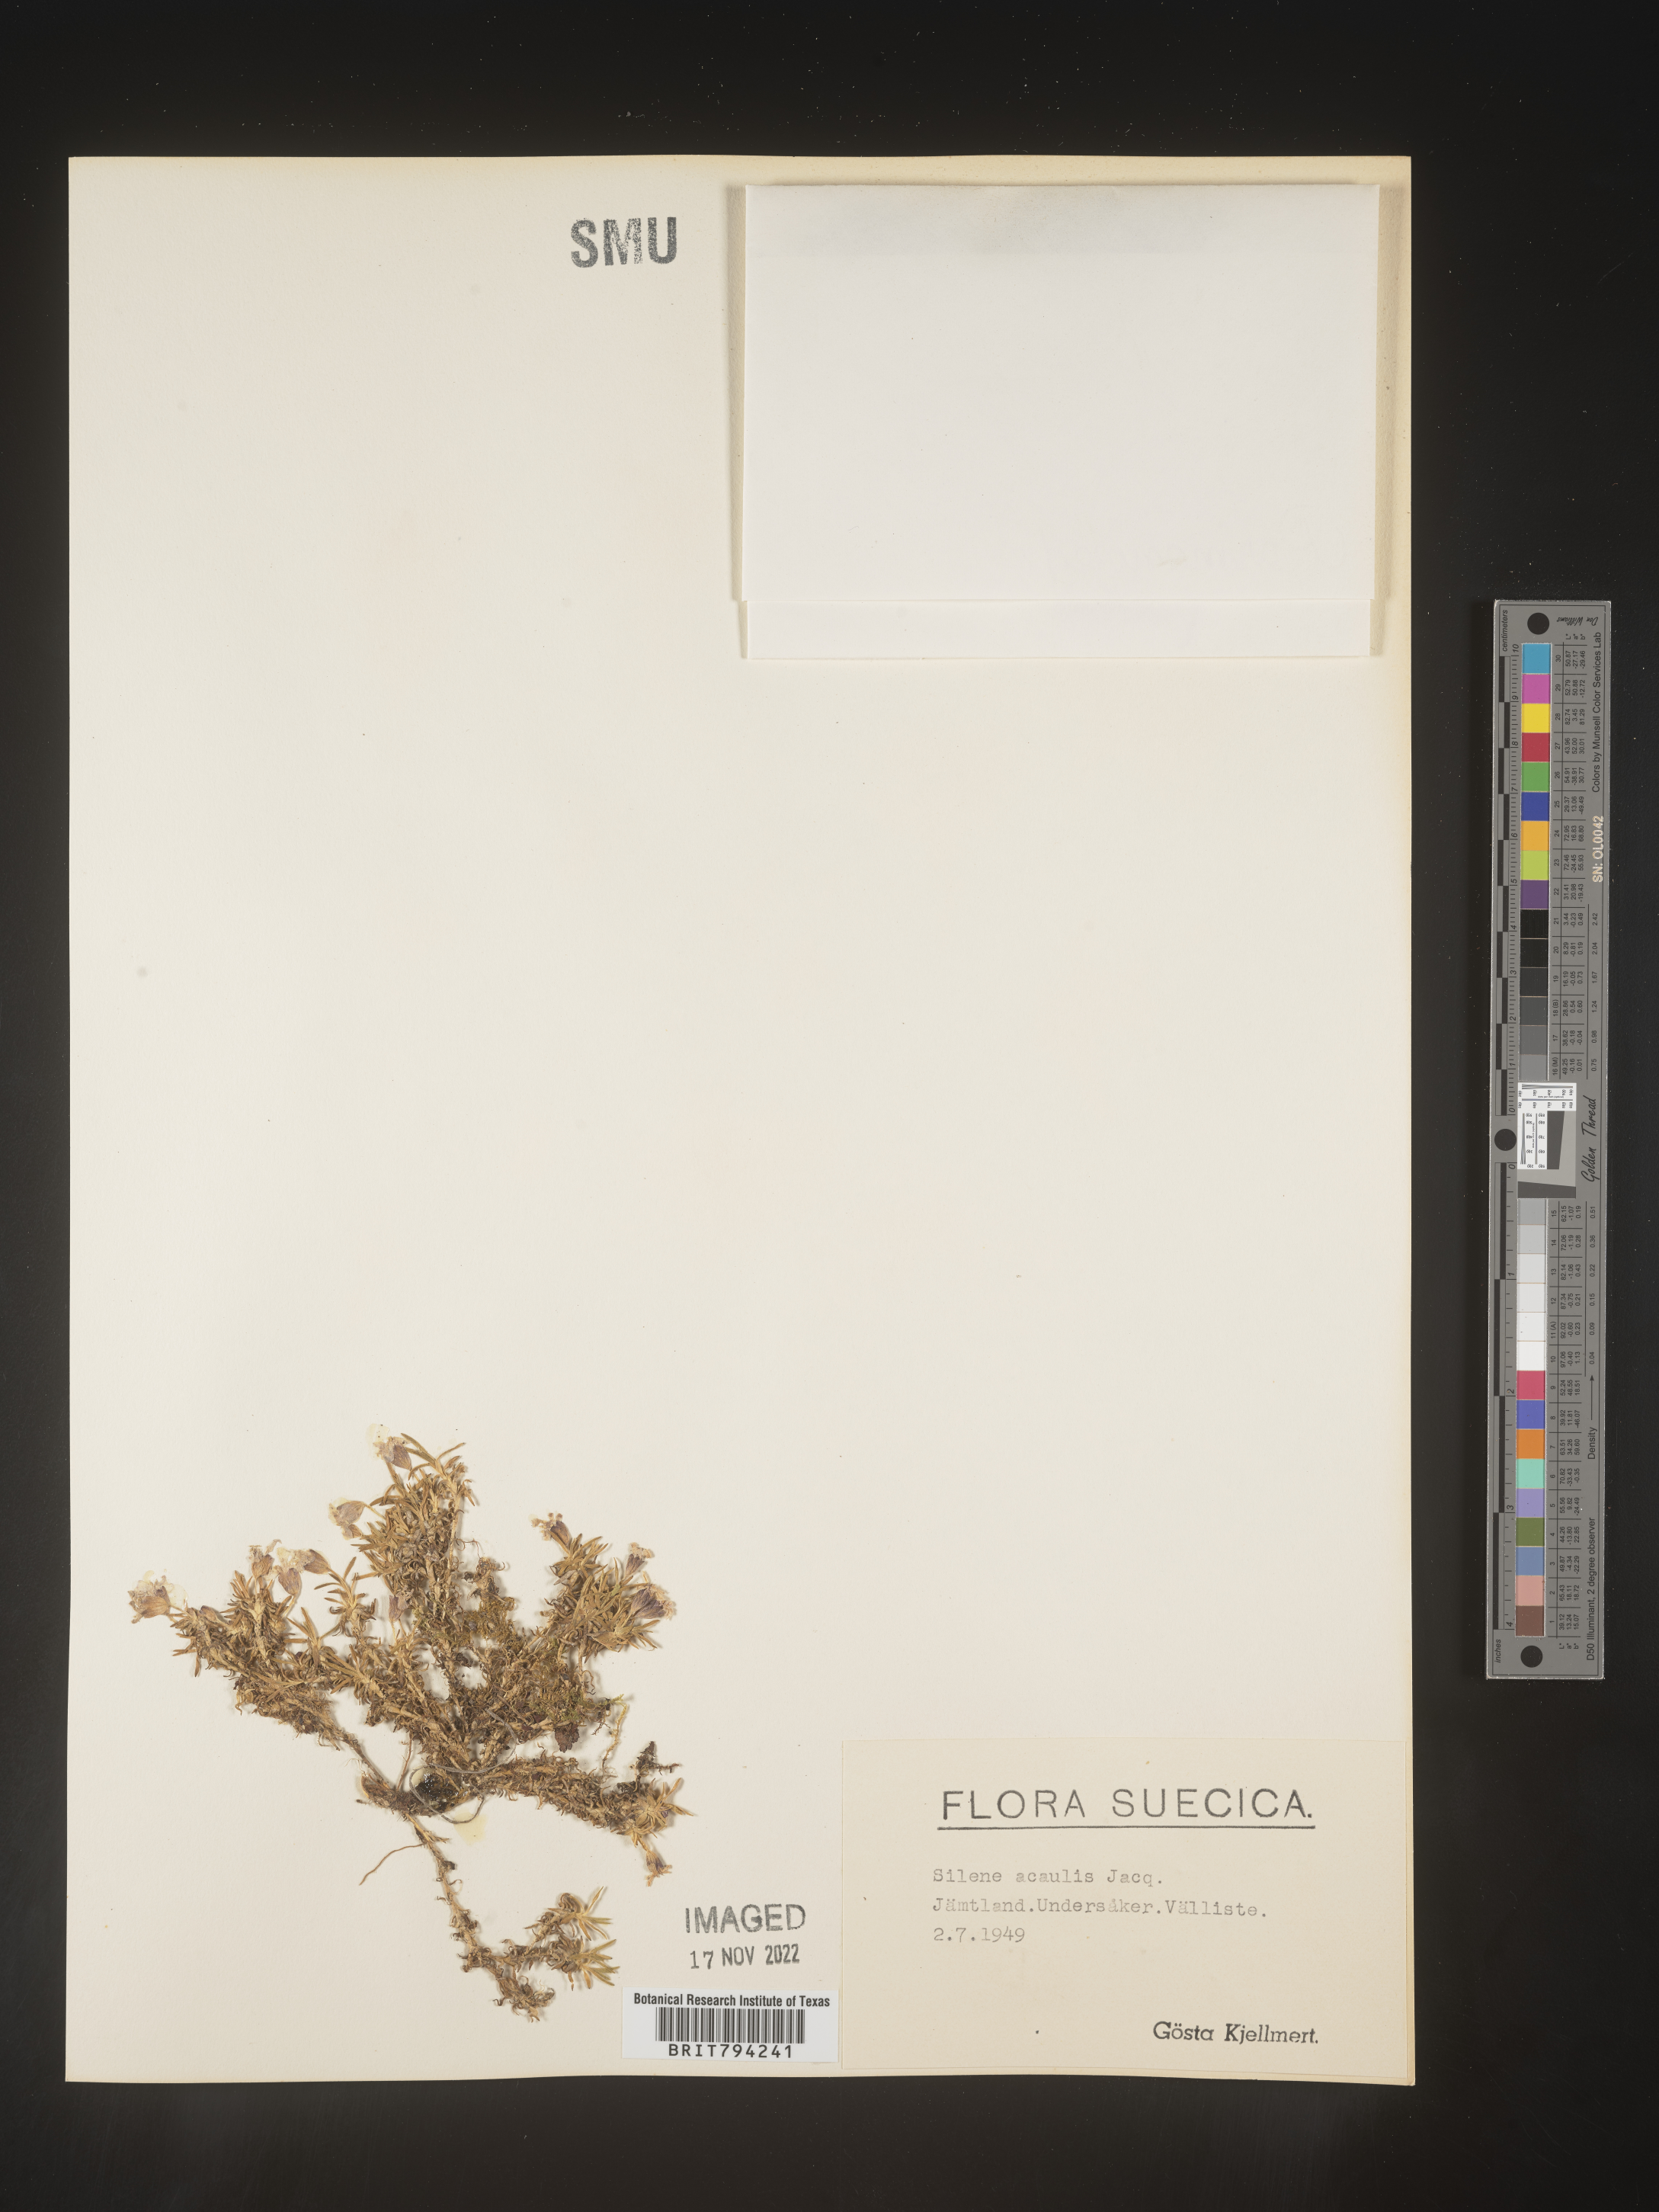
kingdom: Plantae
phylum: Tracheophyta
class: Magnoliopsida
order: Caryophyllales
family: Caryophyllaceae
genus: Silene
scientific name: Silene acaulis
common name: Moss campion
